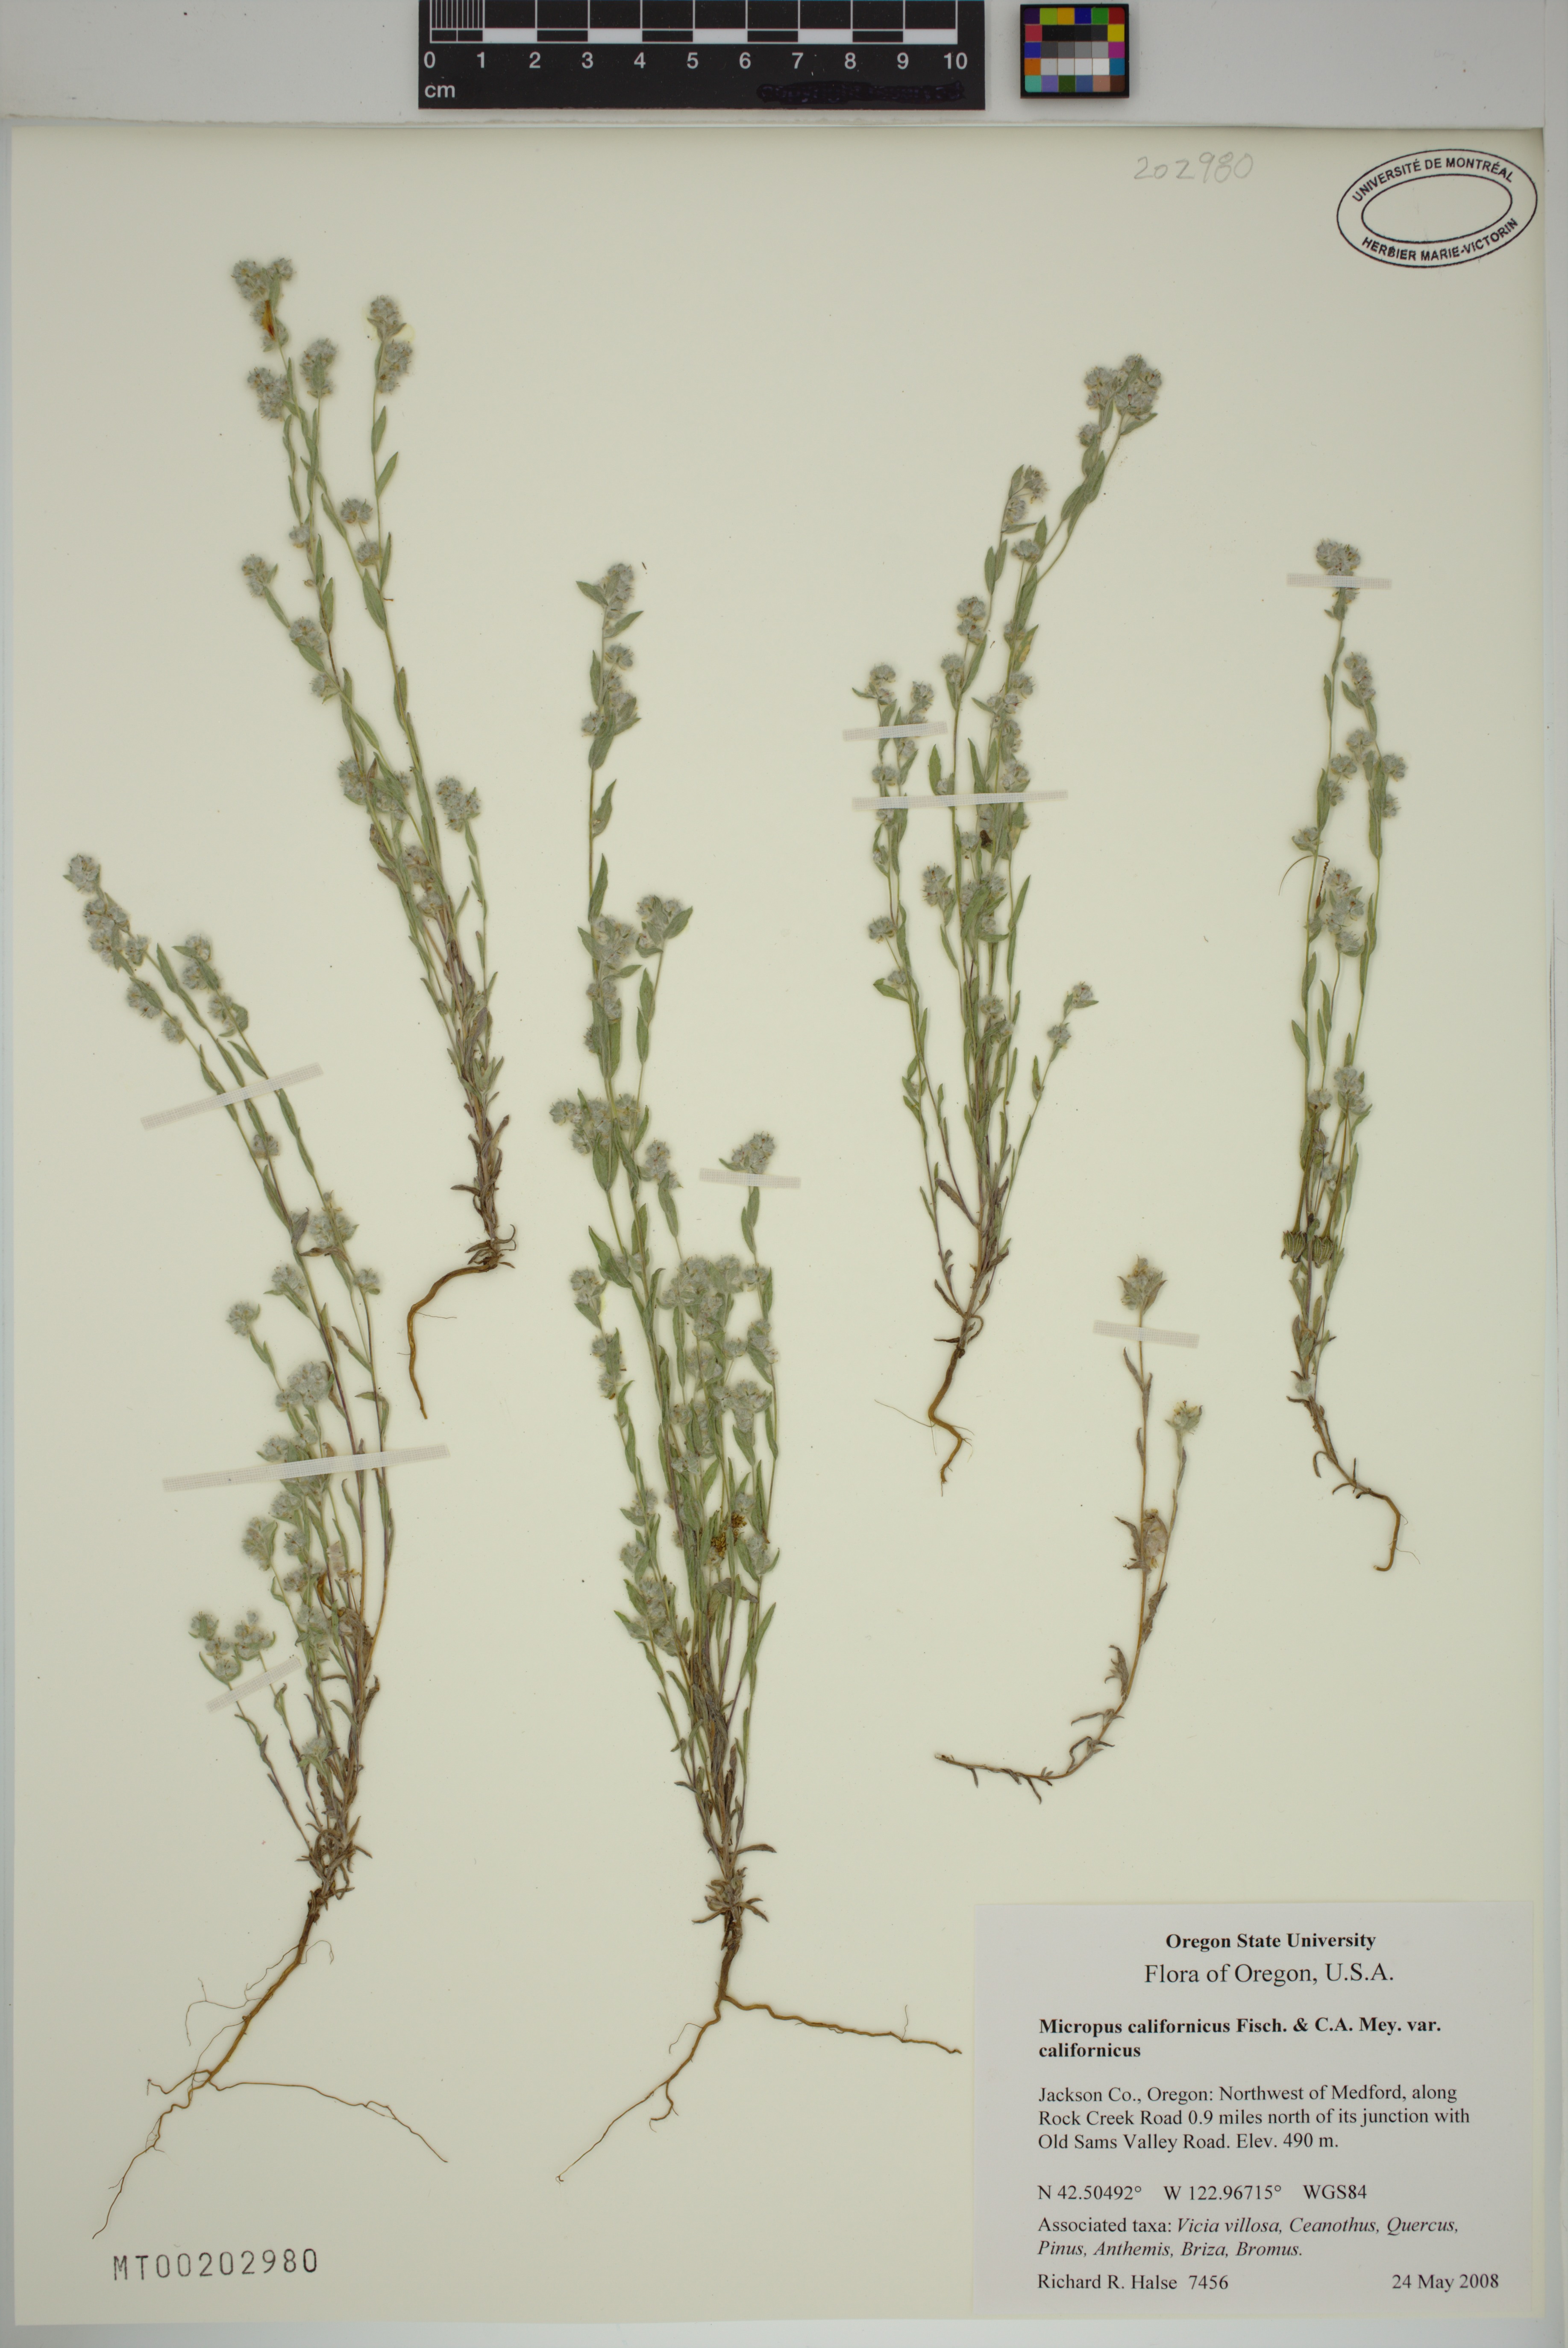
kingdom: Plantae
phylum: Tracheophyta
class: Magnoliopsida
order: Asterales
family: Asteraceae
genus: Bombycilaena
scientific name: Bombycilaena californica
